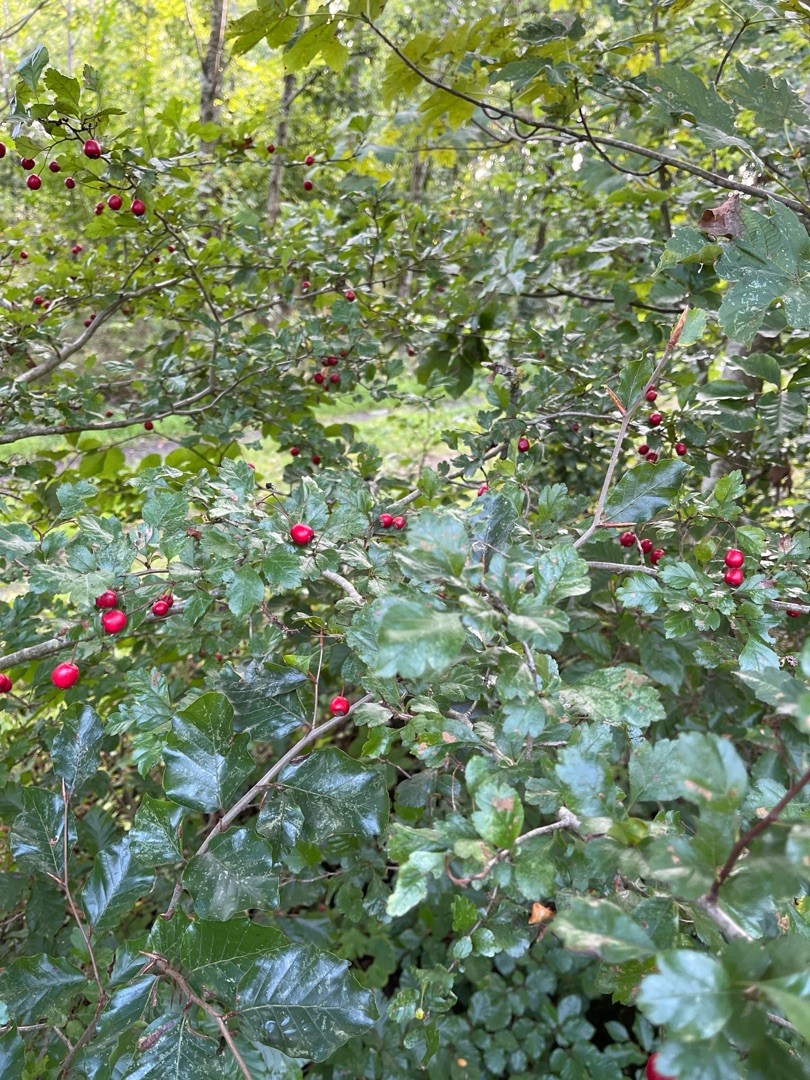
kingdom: Plantae
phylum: Tracheophyta
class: Magnoliopsida
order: Rosales
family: Rosaceae
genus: Crataegus
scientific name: Crataegus laevigata
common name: Almindelig hvidtjørn
